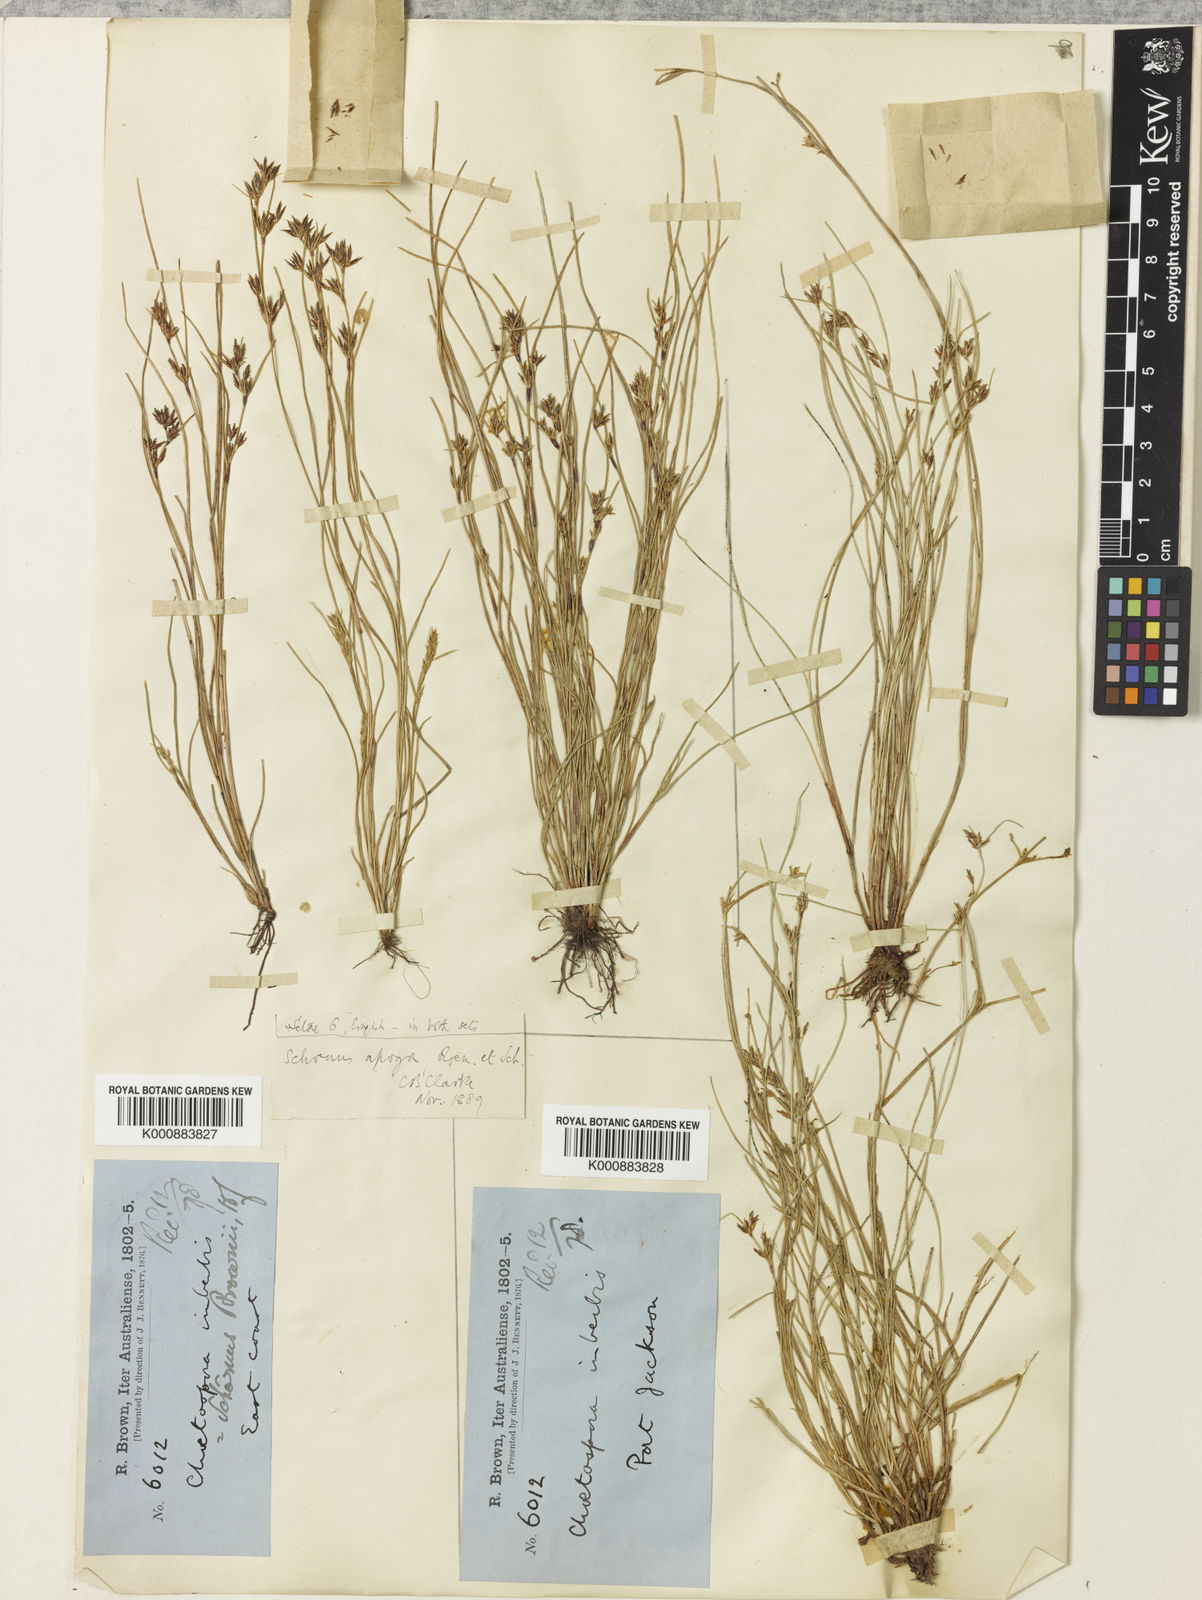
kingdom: Plantae
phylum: Tracheophyta
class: Liliopsida
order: Poales
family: Cyperaceae
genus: Schoenus
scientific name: Schoenus apogon
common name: Smooth bogrush
